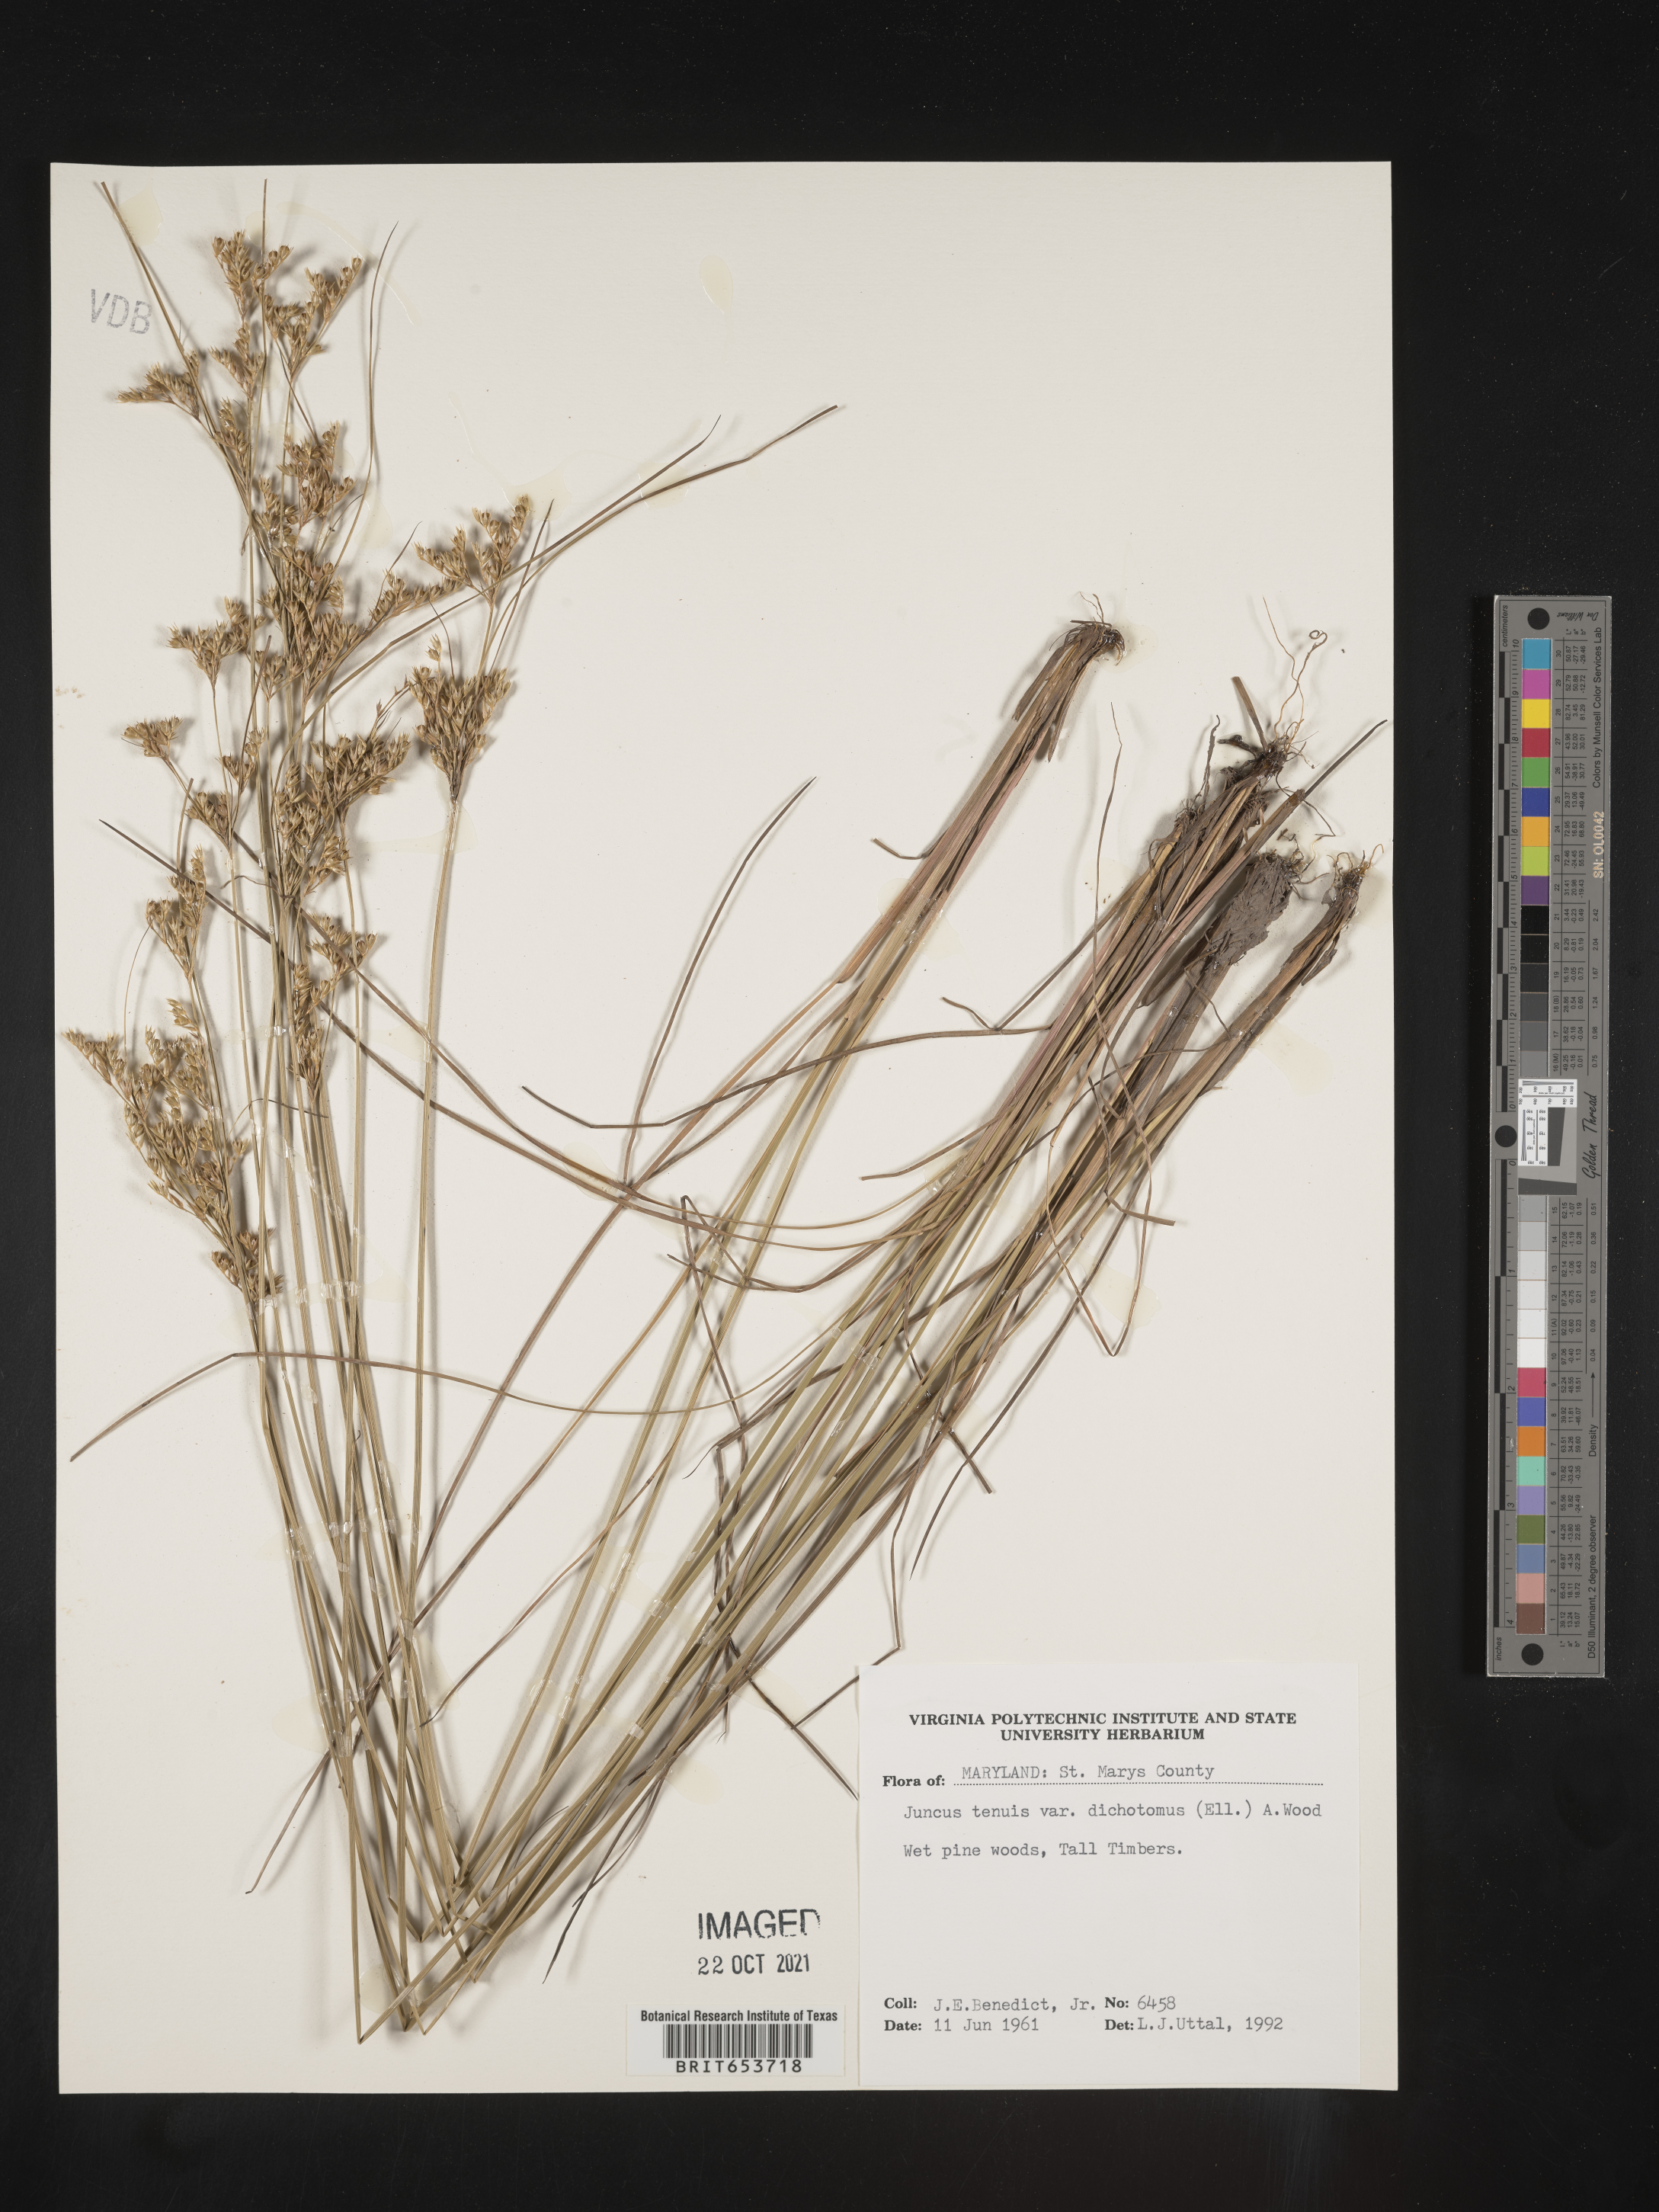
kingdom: Plantae
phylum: Tracheophyta
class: Liliopsida
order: Poales
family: Juncaceae
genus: Juncus
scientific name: Juncus tenuis
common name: Slender rush
